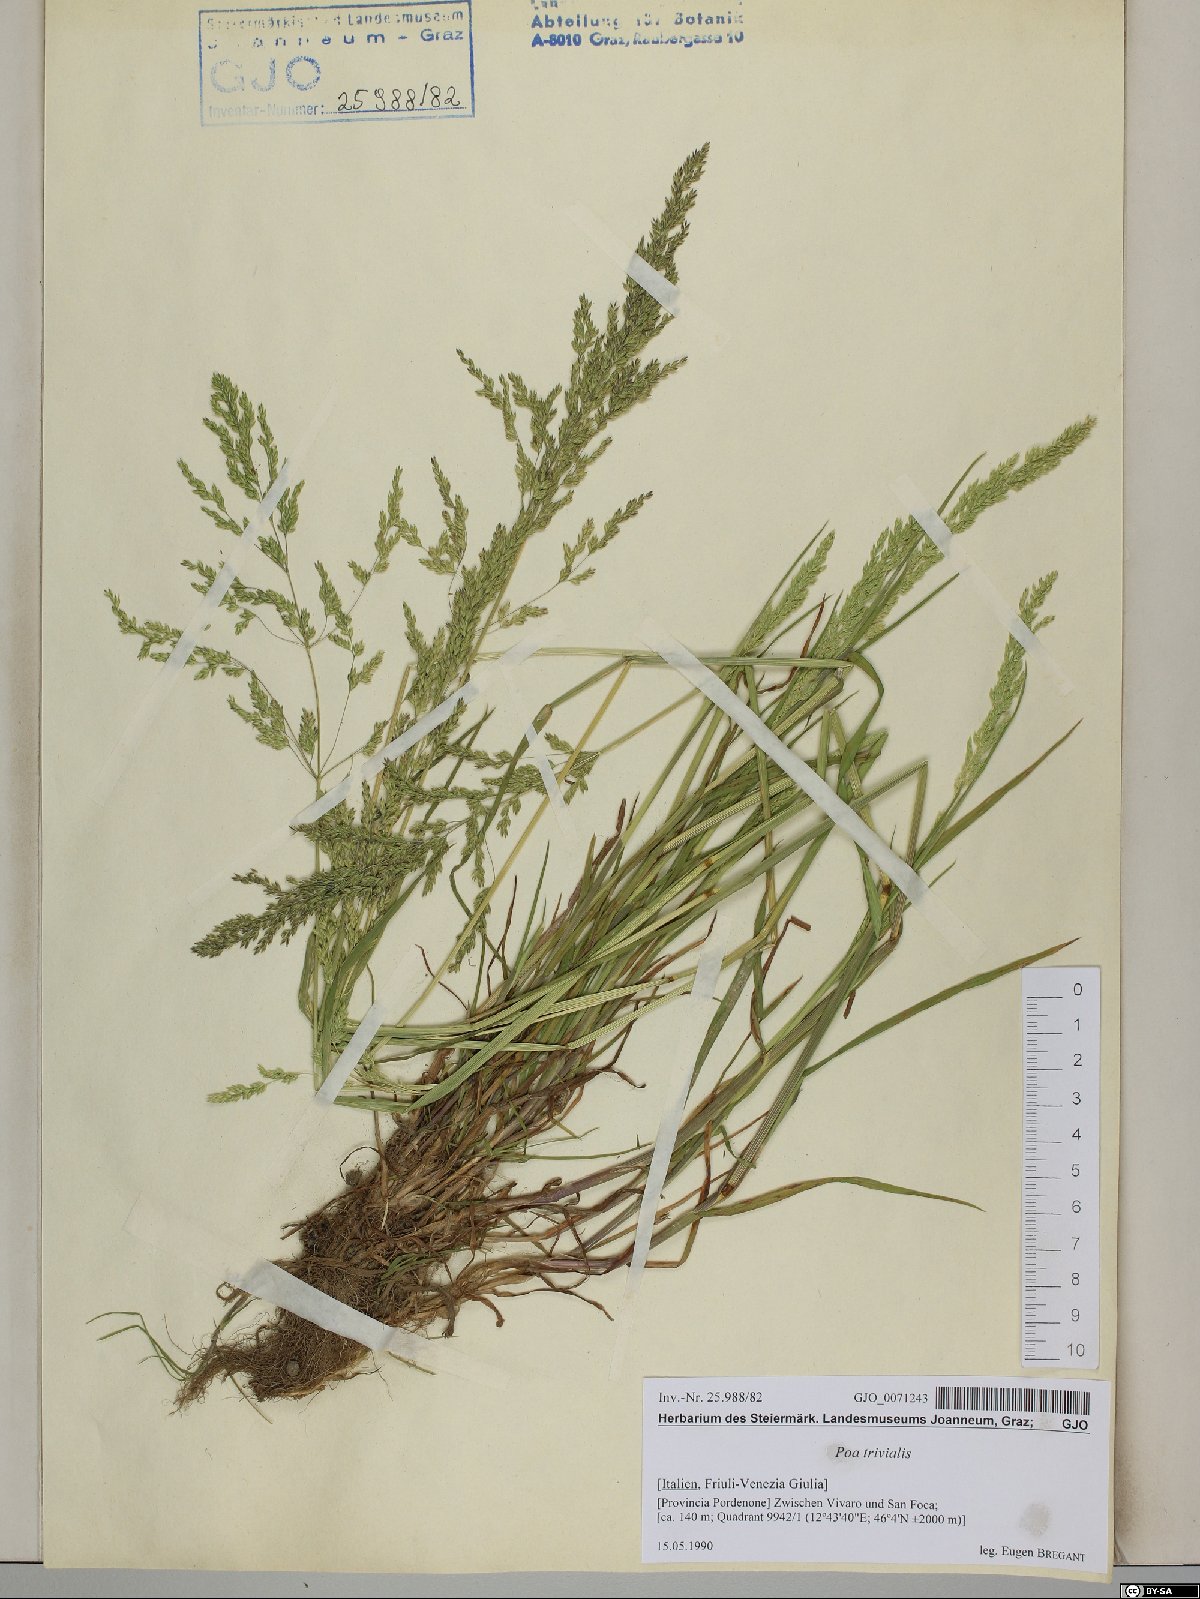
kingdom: Plantae
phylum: Tracheophyta
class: Liliopsida
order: Poales
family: Poaceae
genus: Poa
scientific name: Poa trivialis
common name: Rough bluegrass
